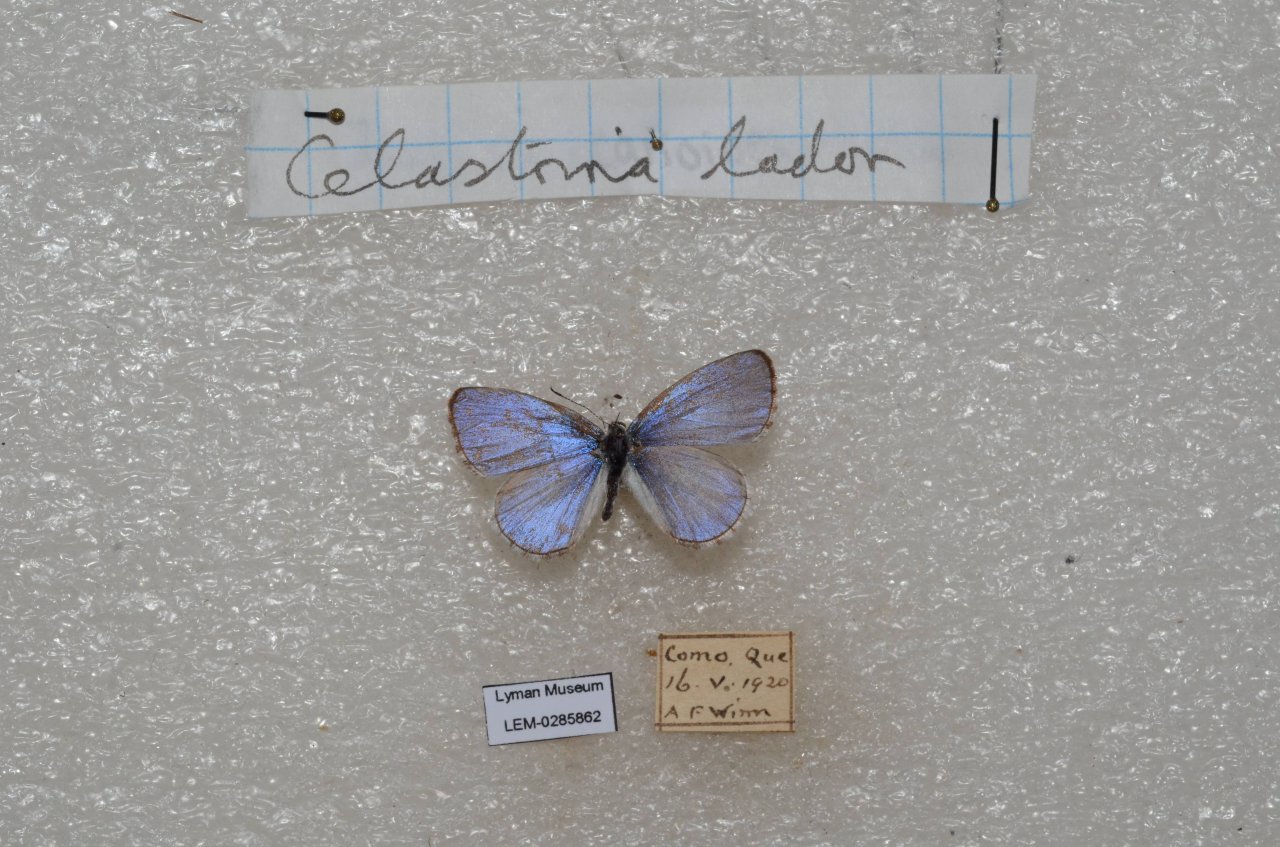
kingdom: Animalia
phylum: Arthropoda
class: Insecta
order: Lepidoptera
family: Lycaenidae
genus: Celastrina
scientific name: Celastrina lucia
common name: Northern Spring Azure
